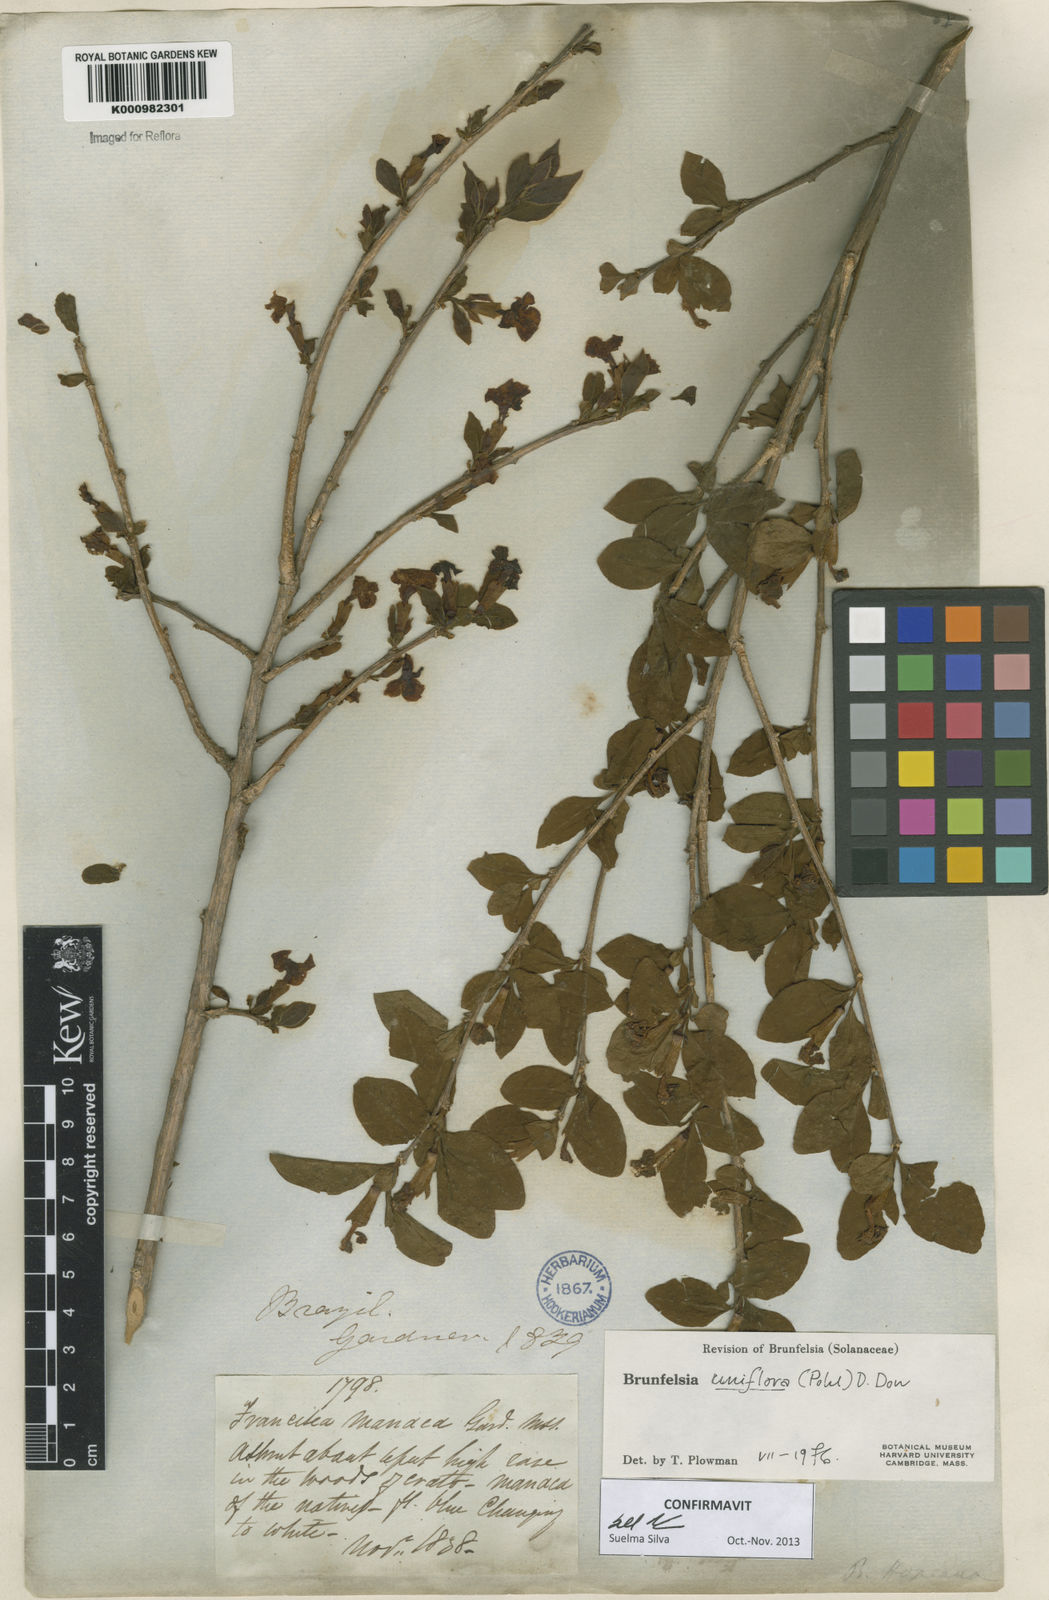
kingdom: Plantae
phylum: Tracheophyta
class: Magnoliopsida
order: Solanales
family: Solanaceae
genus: Brunfelsia
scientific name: Brunfelsia uniflora
